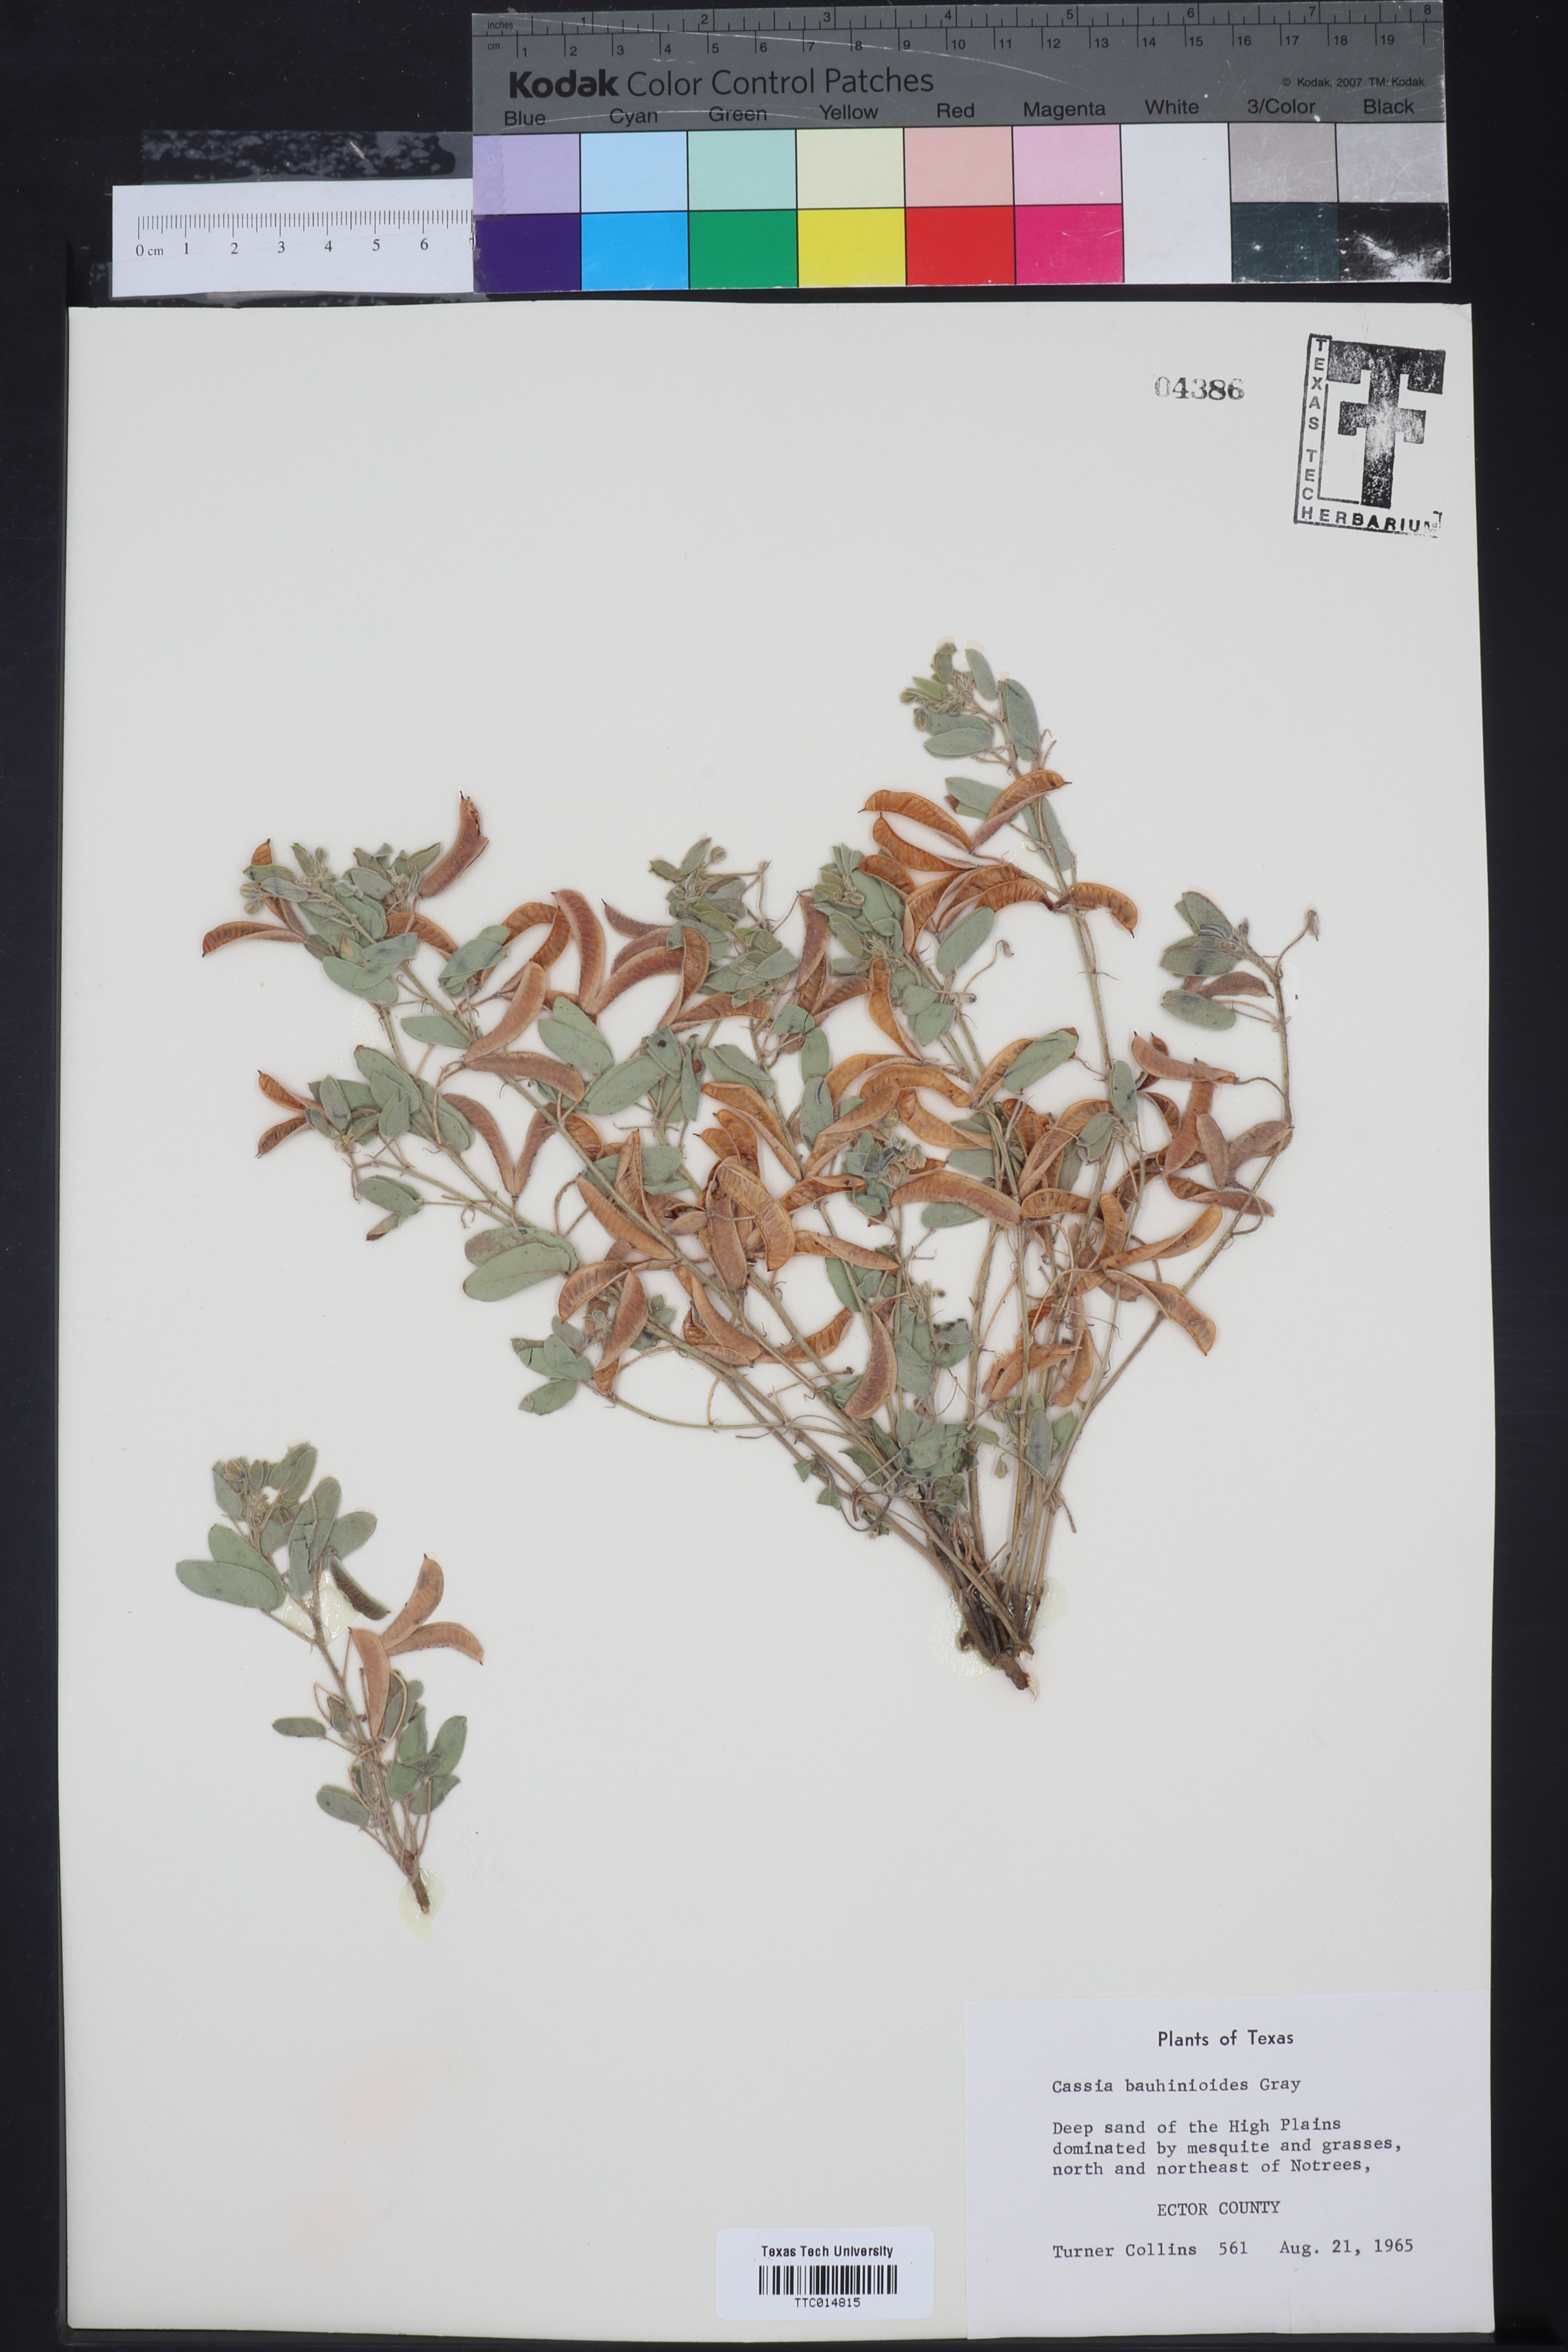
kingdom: Plantae
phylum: Tracheophyta
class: Magnoliopsida
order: Fabales
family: Fabaceae
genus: Senna
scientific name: Senna bauhinioides
